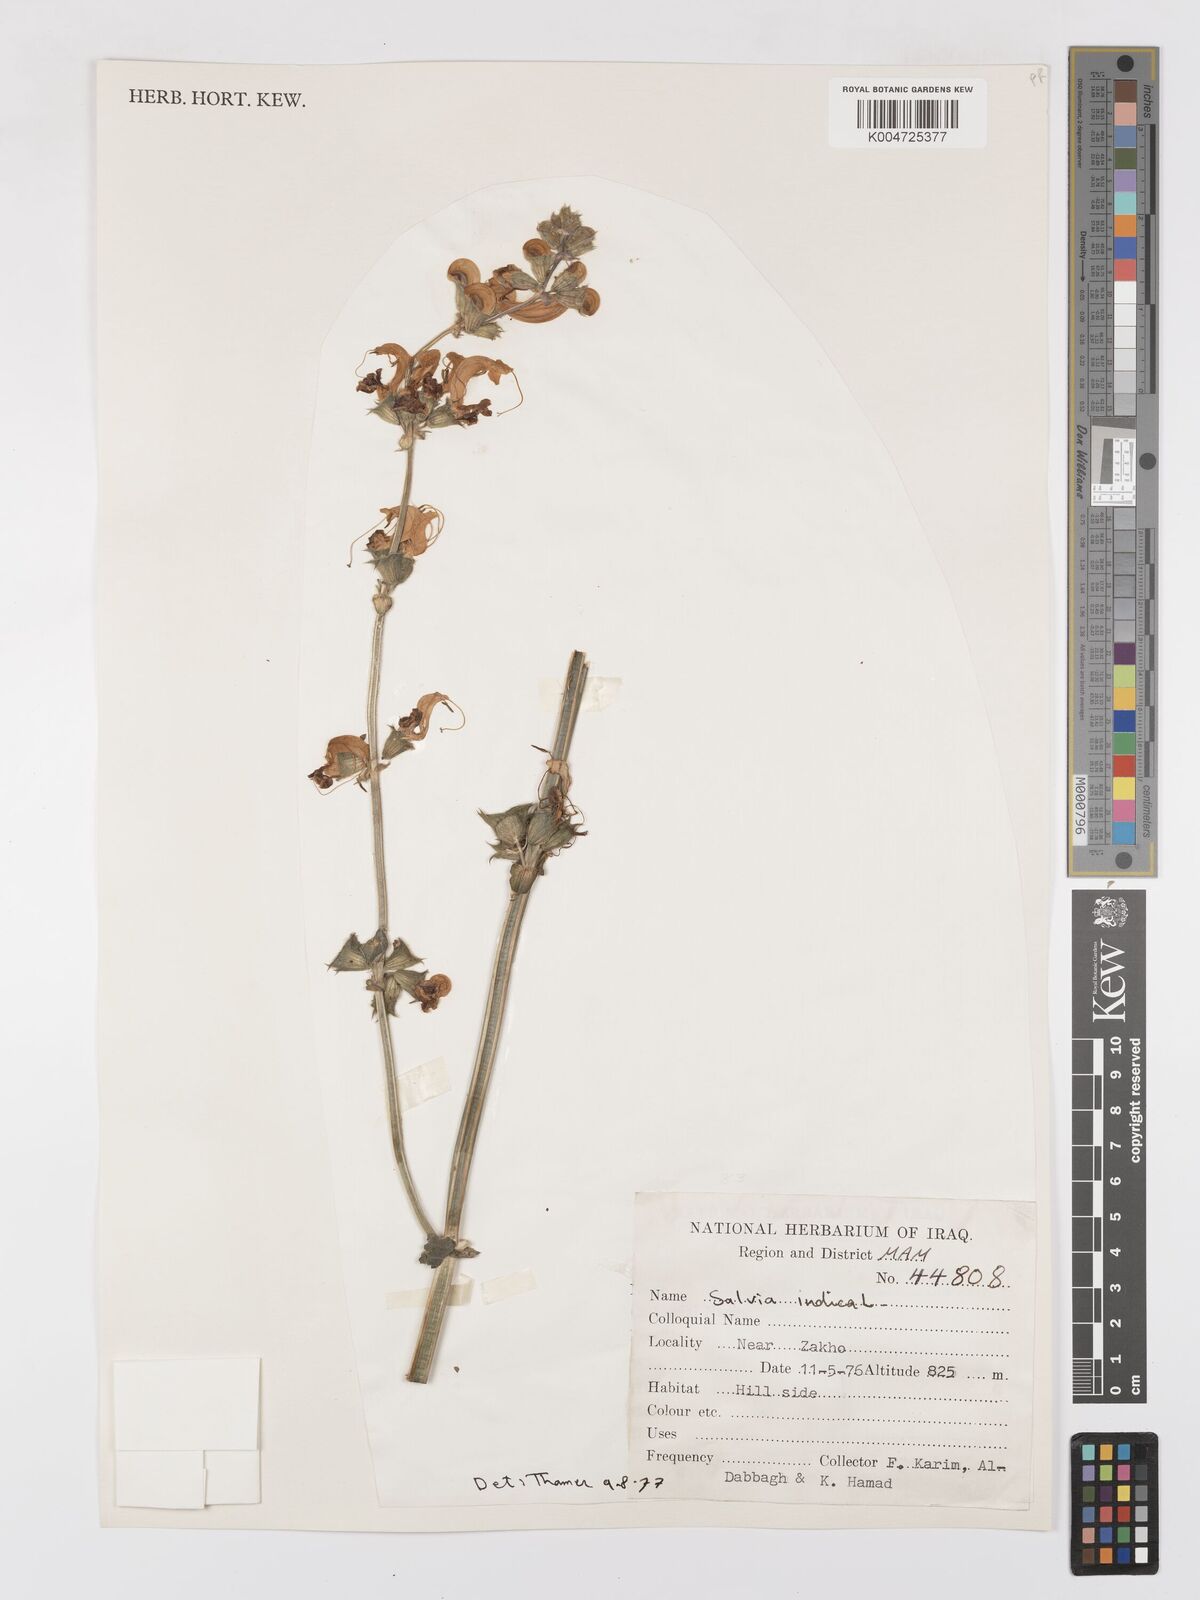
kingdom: Plantae
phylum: Tracheophyta
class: Magnoliopsida
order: Lamiales
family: Lamiaceae
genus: Salvia
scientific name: Salvia indica
